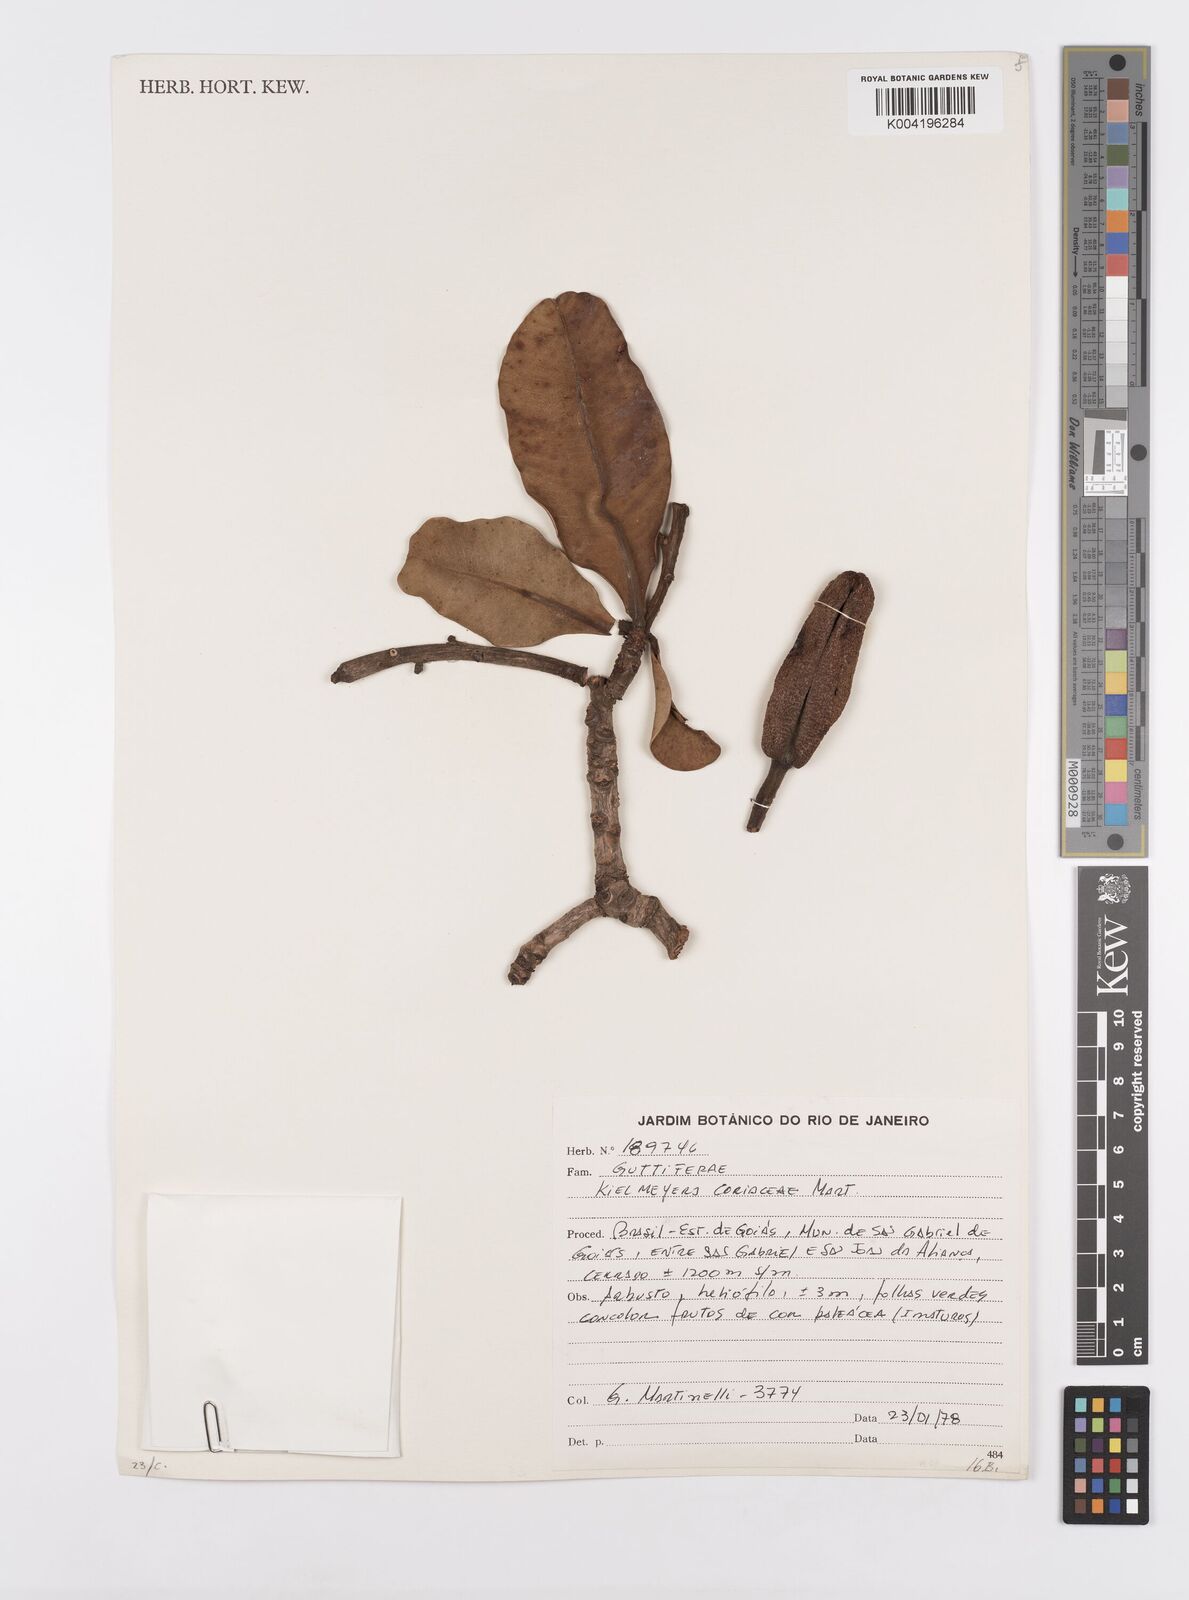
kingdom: Plantae
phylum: Tracheophyta
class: Magnoliopsida
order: Malpighiales
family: Calophyllaceae
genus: Kielmeyera
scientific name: Kielmeyera coriacea
